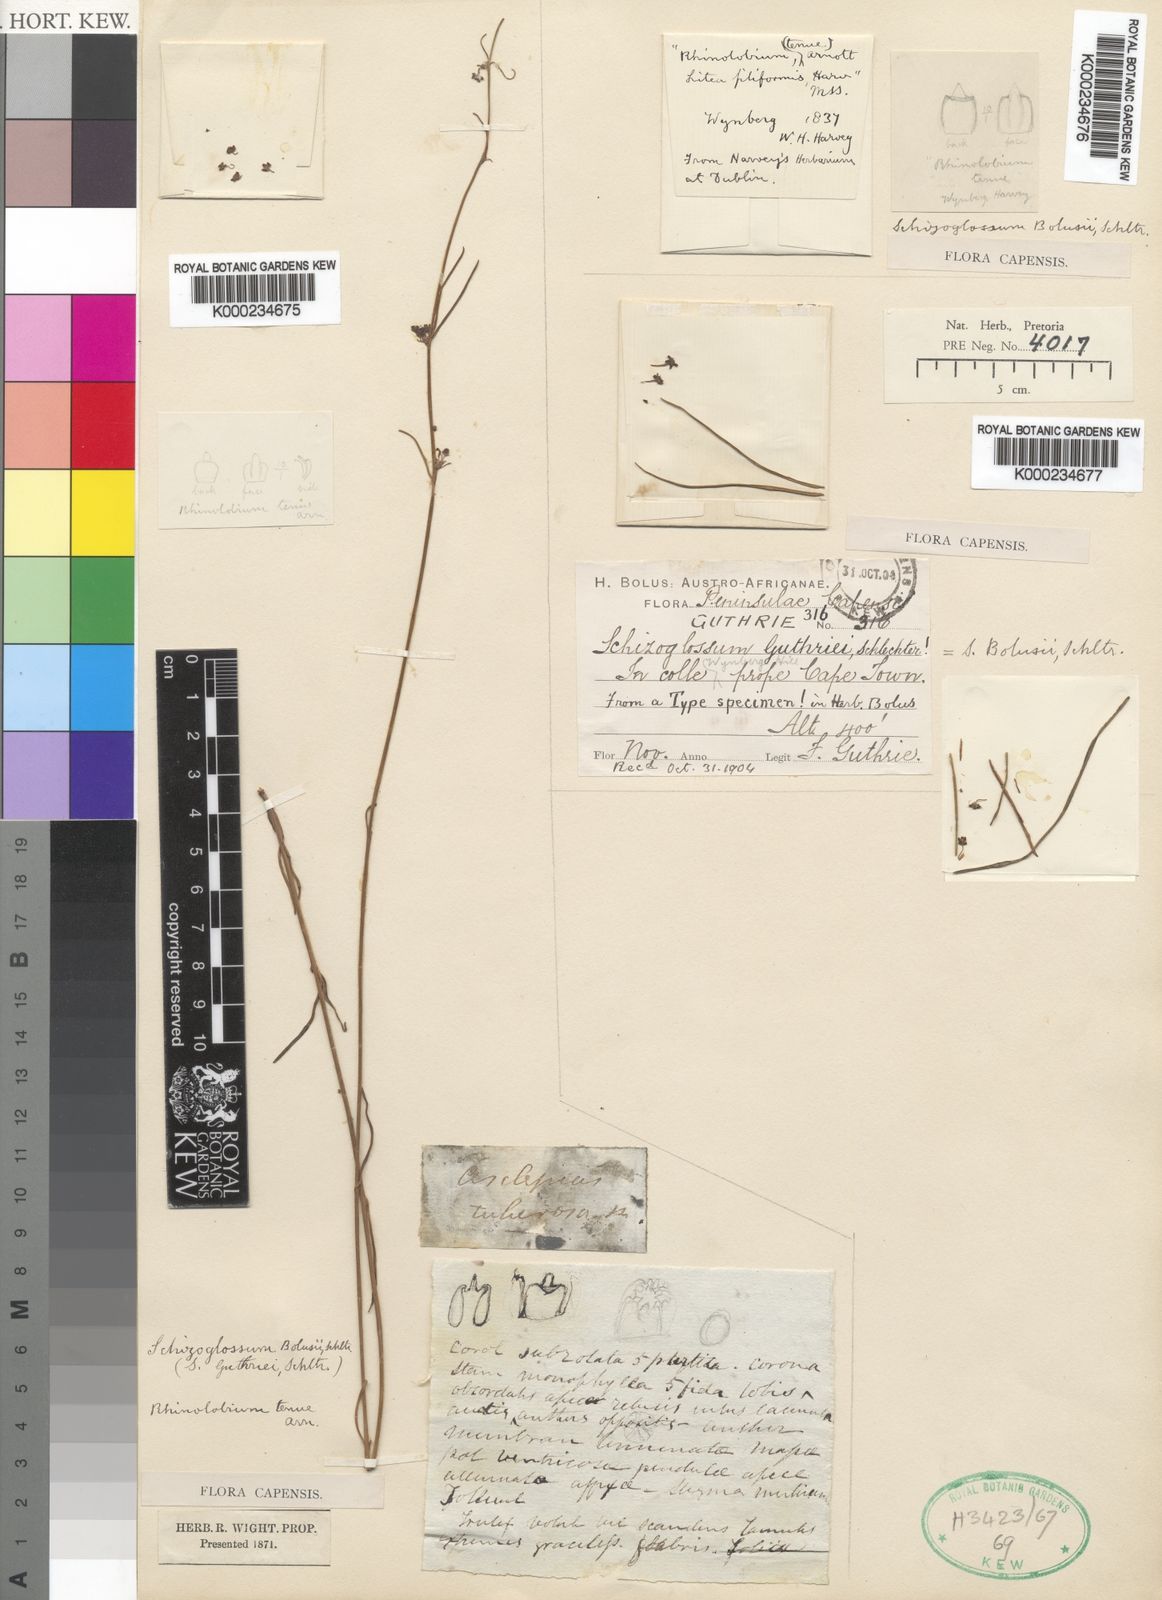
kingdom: Plantae
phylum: Tracheophyta
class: Magnoliopsida
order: Gentianales
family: Apocynaceae
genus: Aspidoglossum
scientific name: Aspidoglossum gracile
